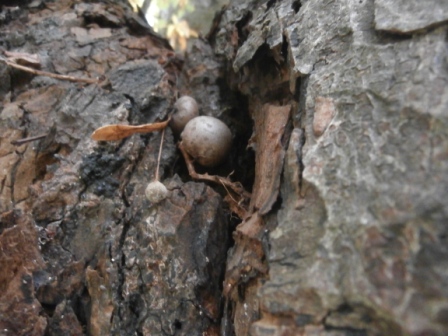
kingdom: Protozoa
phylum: Mycetozoa
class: Myxomycetes
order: Cribrariales
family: Tubiferaceae
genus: Lycogala
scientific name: Lycogala flavofuscum
